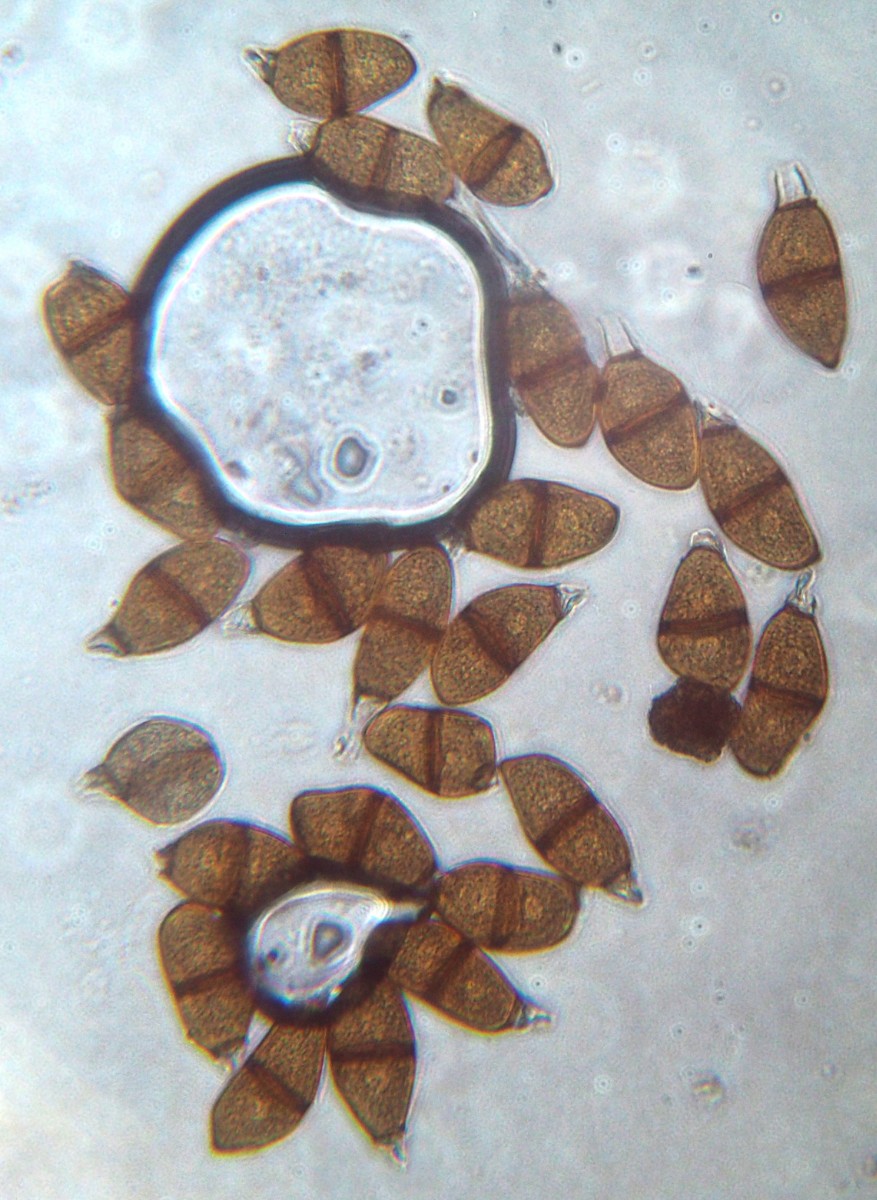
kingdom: Fungi
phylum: Basidiomycota
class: Pucciniomycetes
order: Pucciniales
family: Pucciniaceae
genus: Puccinia
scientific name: Puccinia liliacearum
